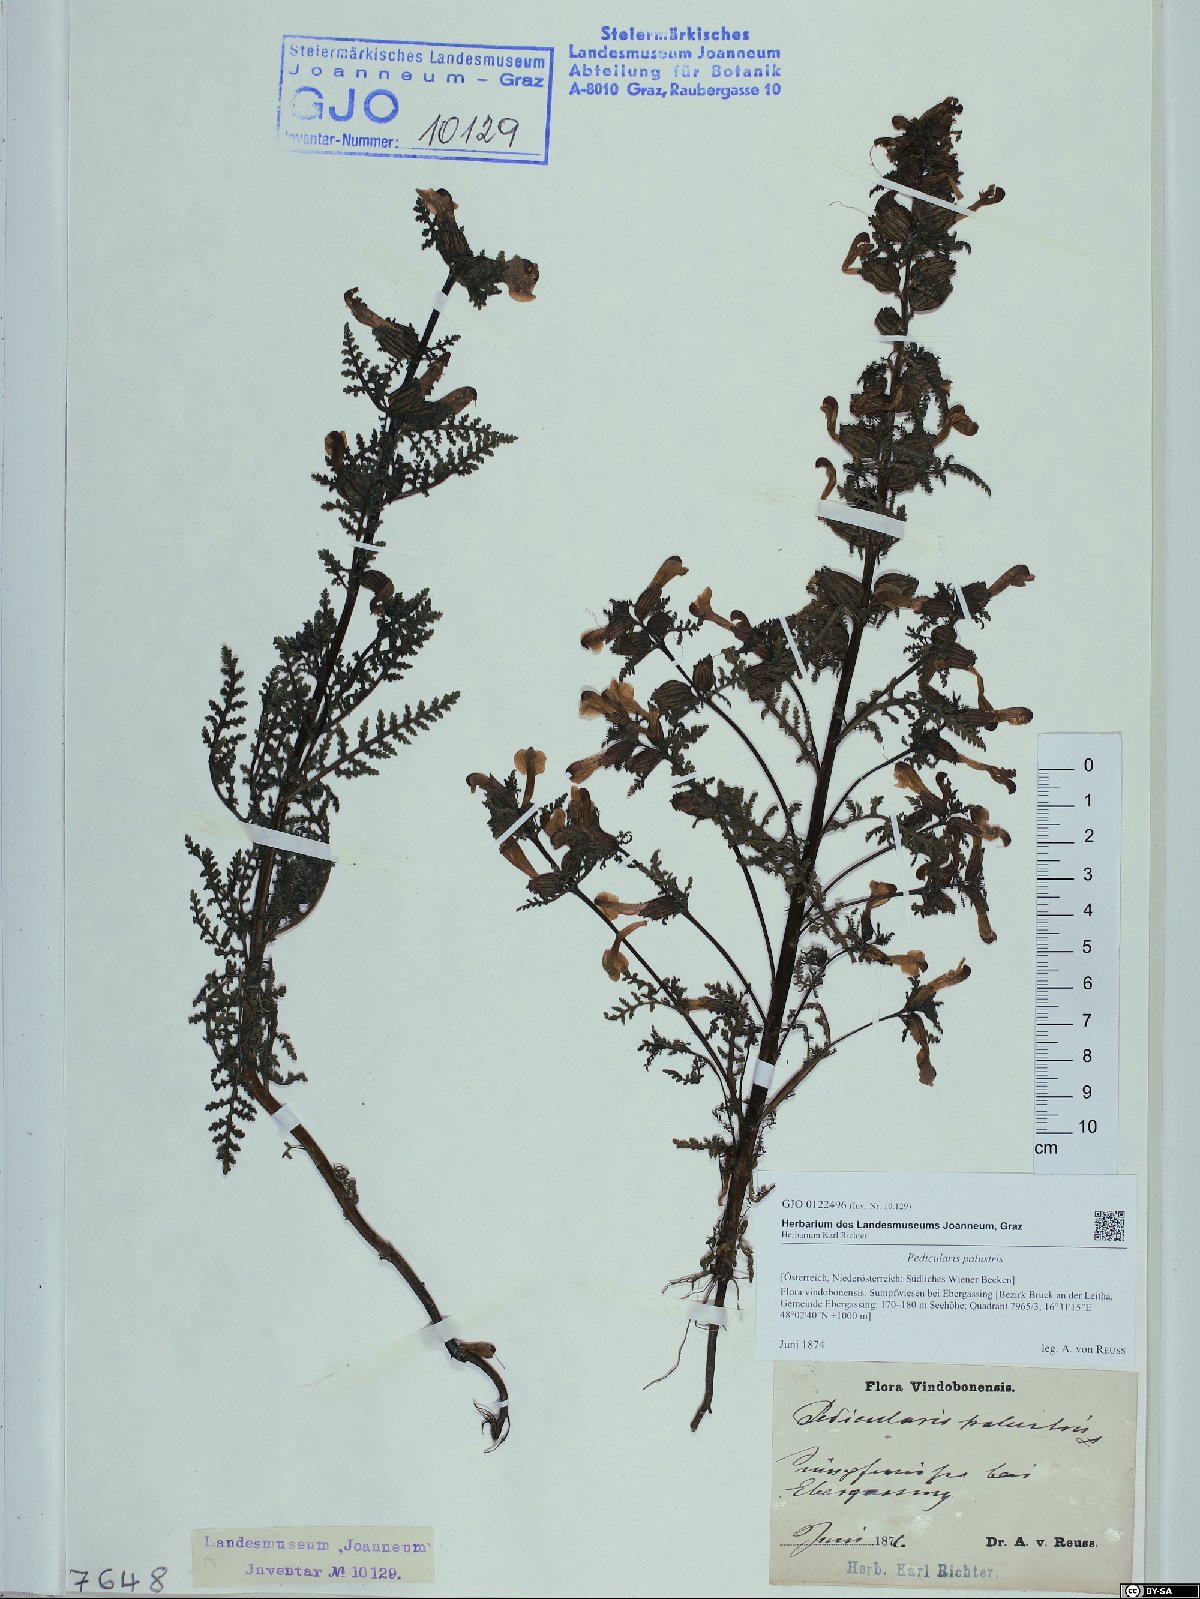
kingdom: Plantae
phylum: Tracheophyta
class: Magnoliopsida
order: Lamiales
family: Orobanchaceae
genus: Pedicularis
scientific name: Pedicularis palustris
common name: Marsh lousewort
